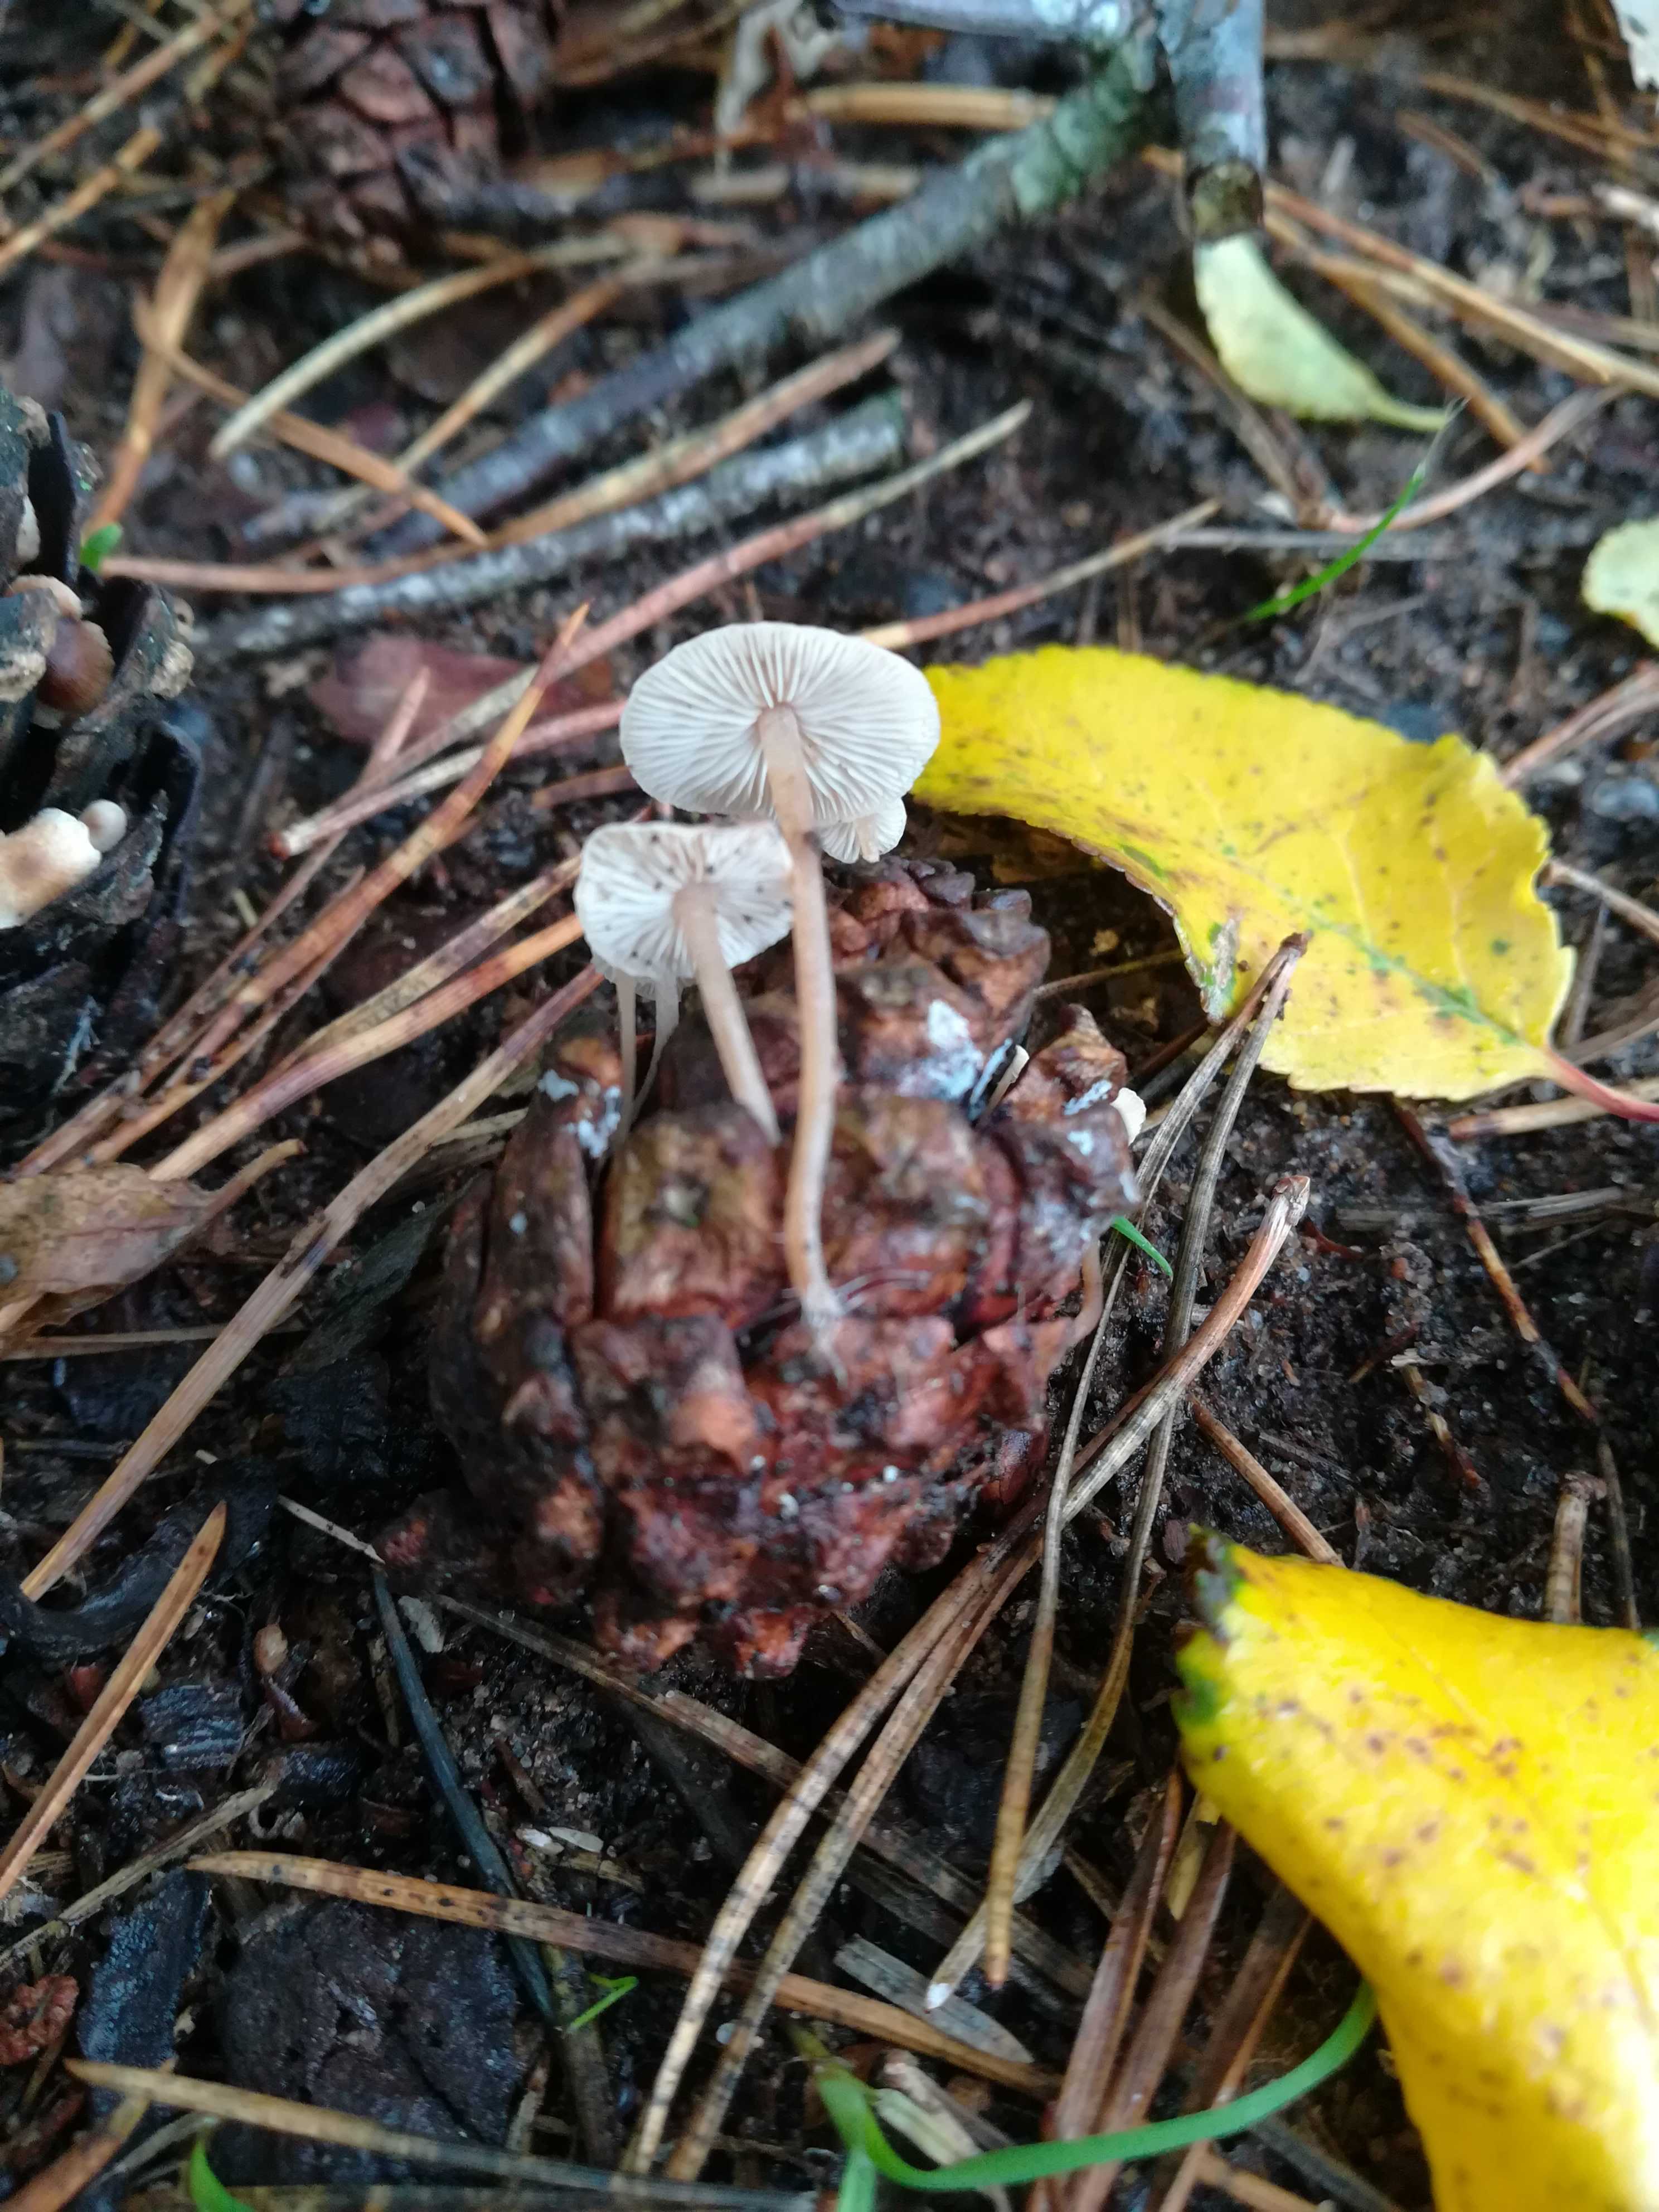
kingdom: Fungi
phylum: Basidiomycota
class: Agaricomycetes
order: Agaricales
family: Marasmiaceae
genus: Baeospora
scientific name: Baeospora myosura
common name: koglebruskhat
